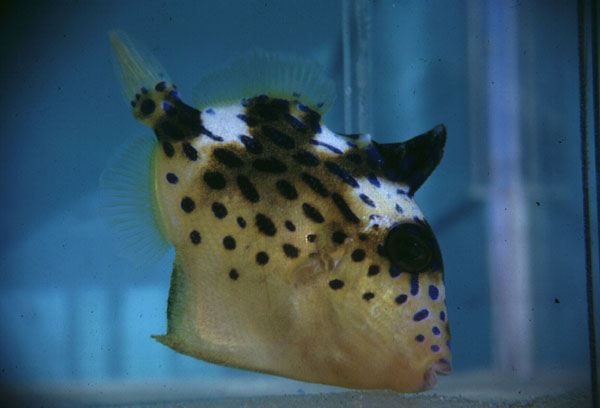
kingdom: Animalia
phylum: Chordata
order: Tetraodontiformes
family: Balistidae
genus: Pseudobalistes
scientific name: Pseudobalistes fuscus
